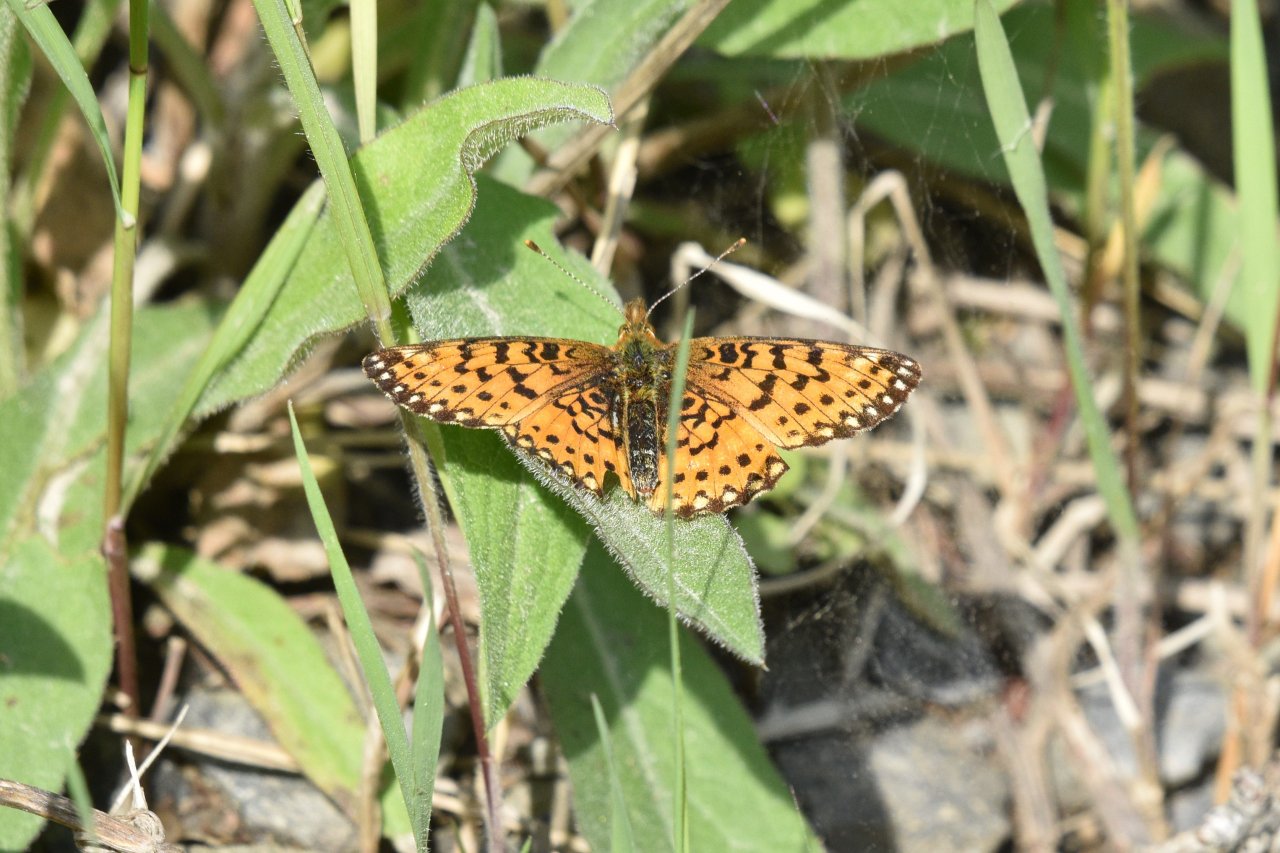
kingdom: Animalia
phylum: Arthropoda
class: Insecta
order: Lepidoptera
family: Nymphalidae
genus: Boloria
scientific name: Boloria selene
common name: Silver-bordered Fritillary
